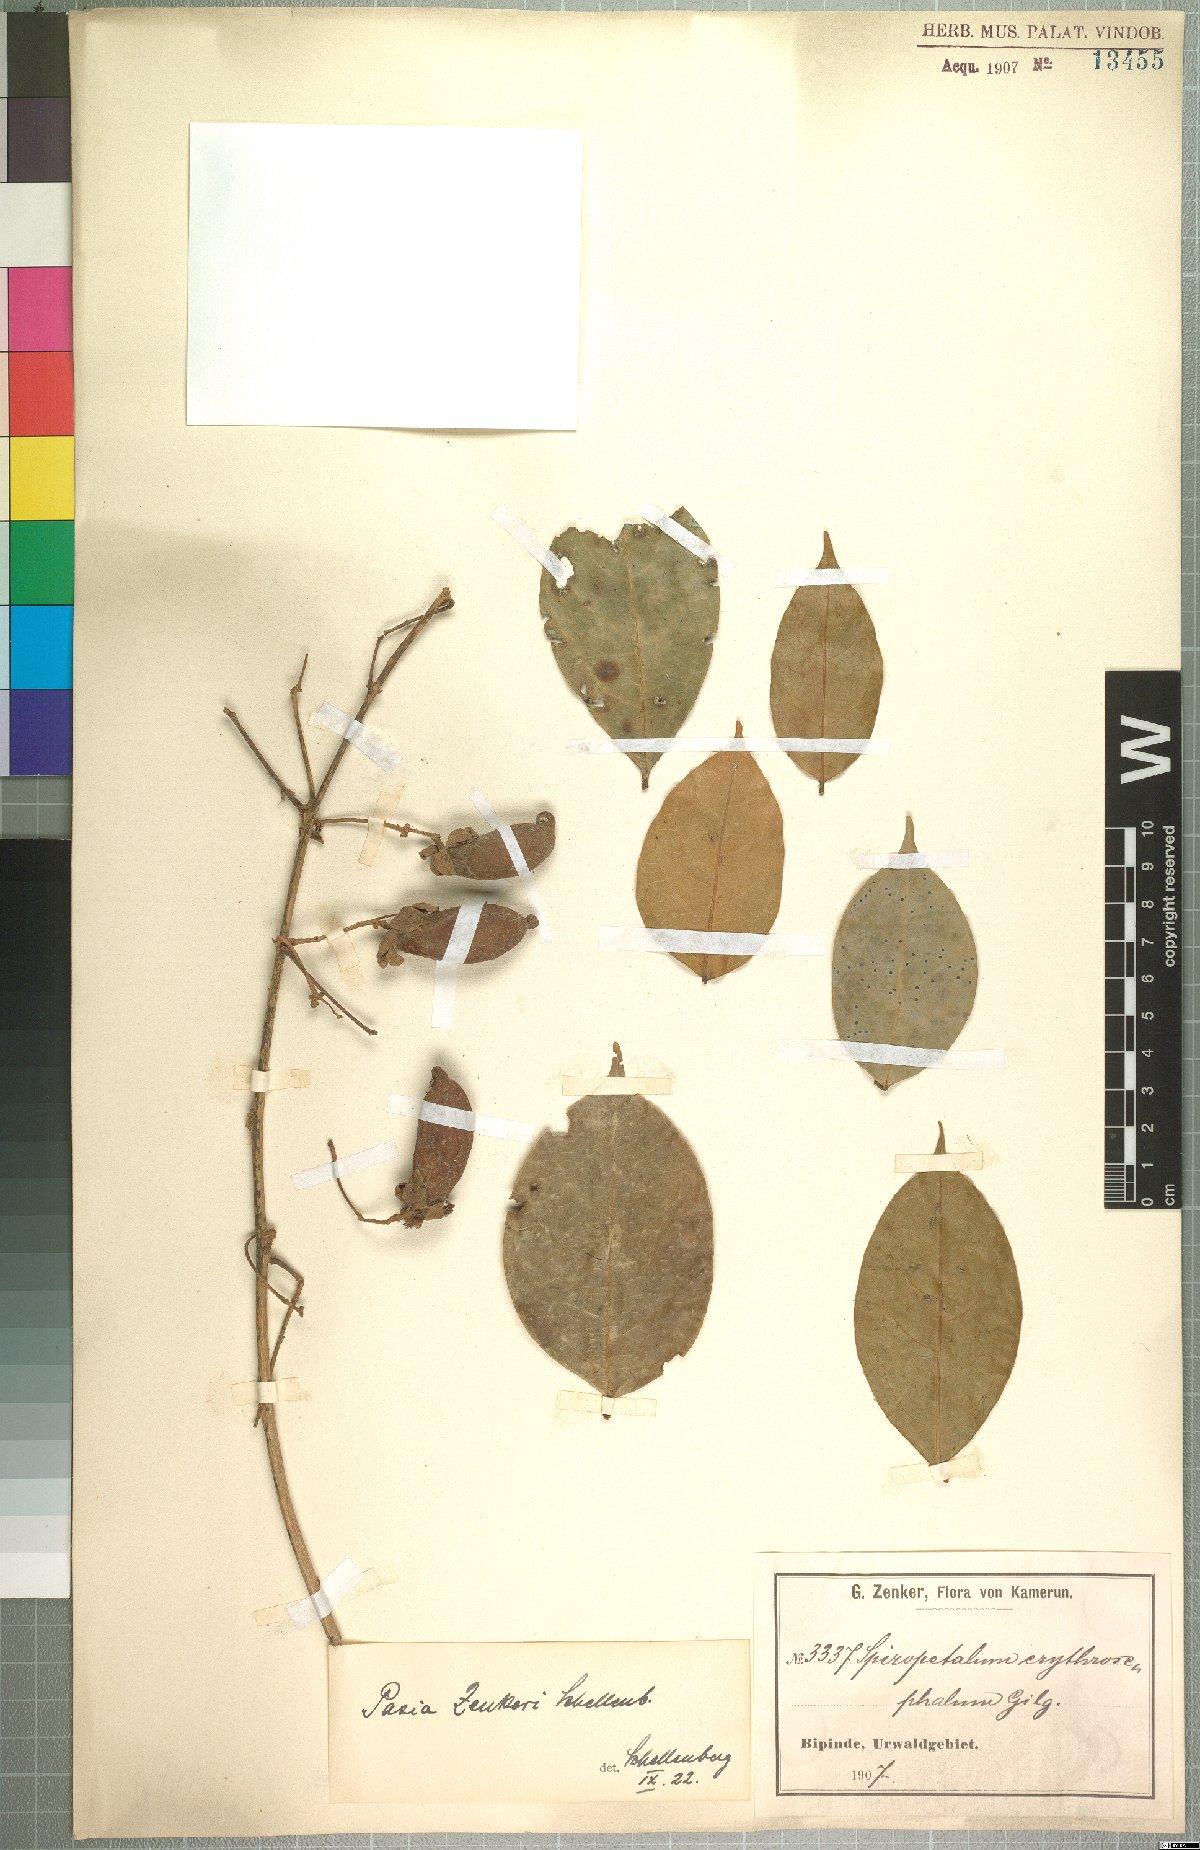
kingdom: Plantae
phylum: Tracheophyta
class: Magnoliopsida
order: Oxalidales
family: Connaraceae
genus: Rourea
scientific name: Rourea myriantha
